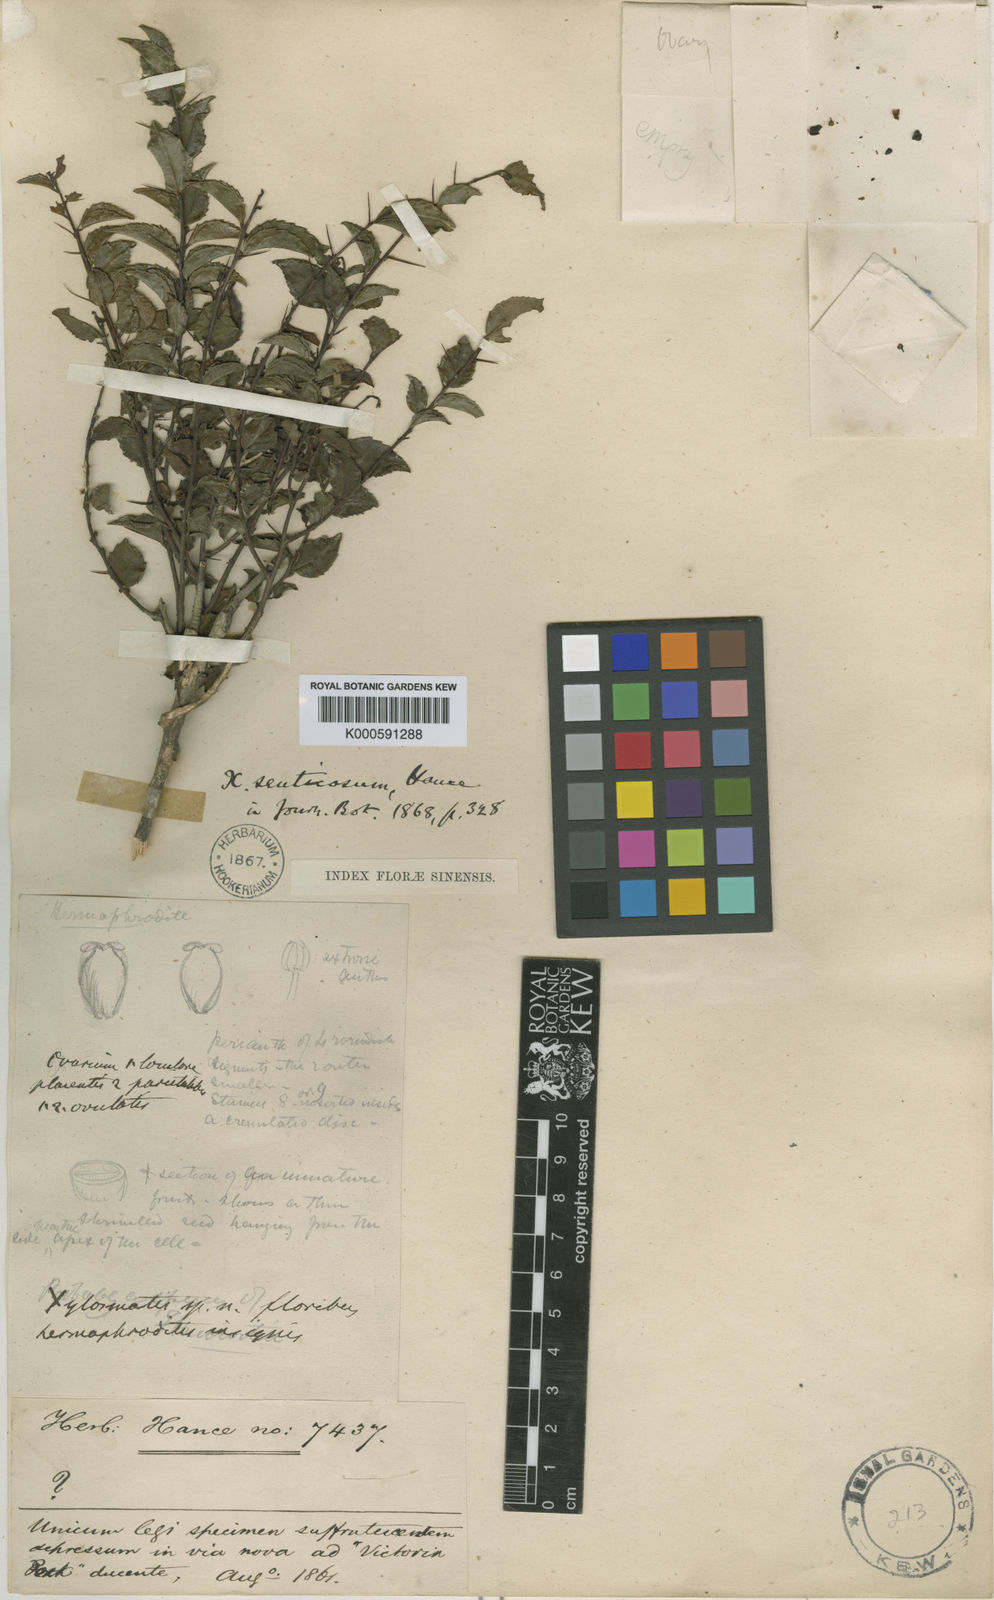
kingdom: Plantae
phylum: Tracheophyta
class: Magnoliopsida
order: Malpighiales
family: Salicaceae
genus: Xylosma
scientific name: Xylosma racemosum
